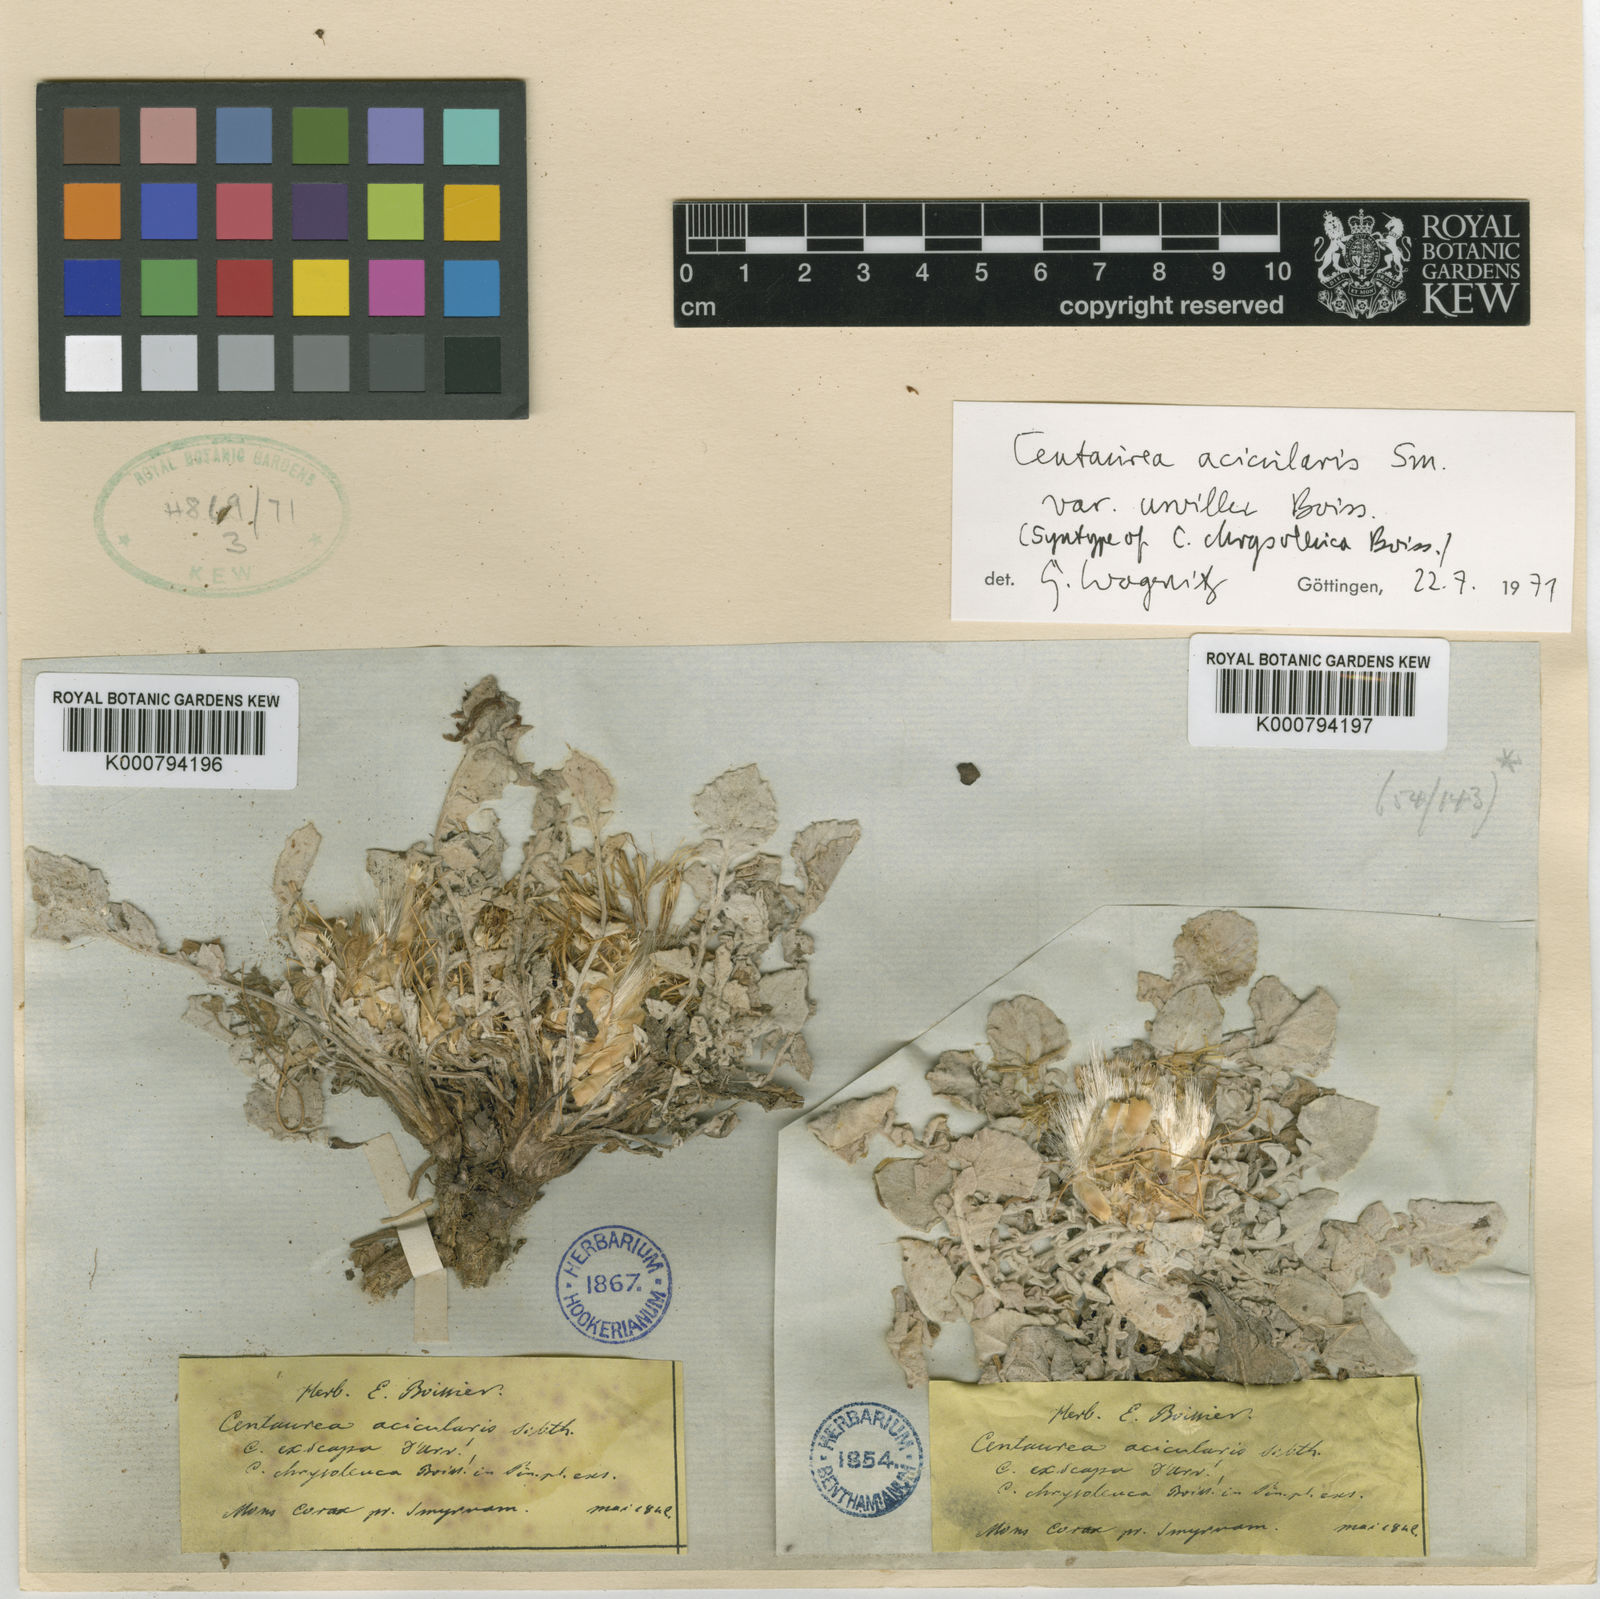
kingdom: Plantae
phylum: Tracheophyta
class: Magnoliopsida
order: Asterales
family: Asteraceae
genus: Centaurea
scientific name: Centaurea acicularis
